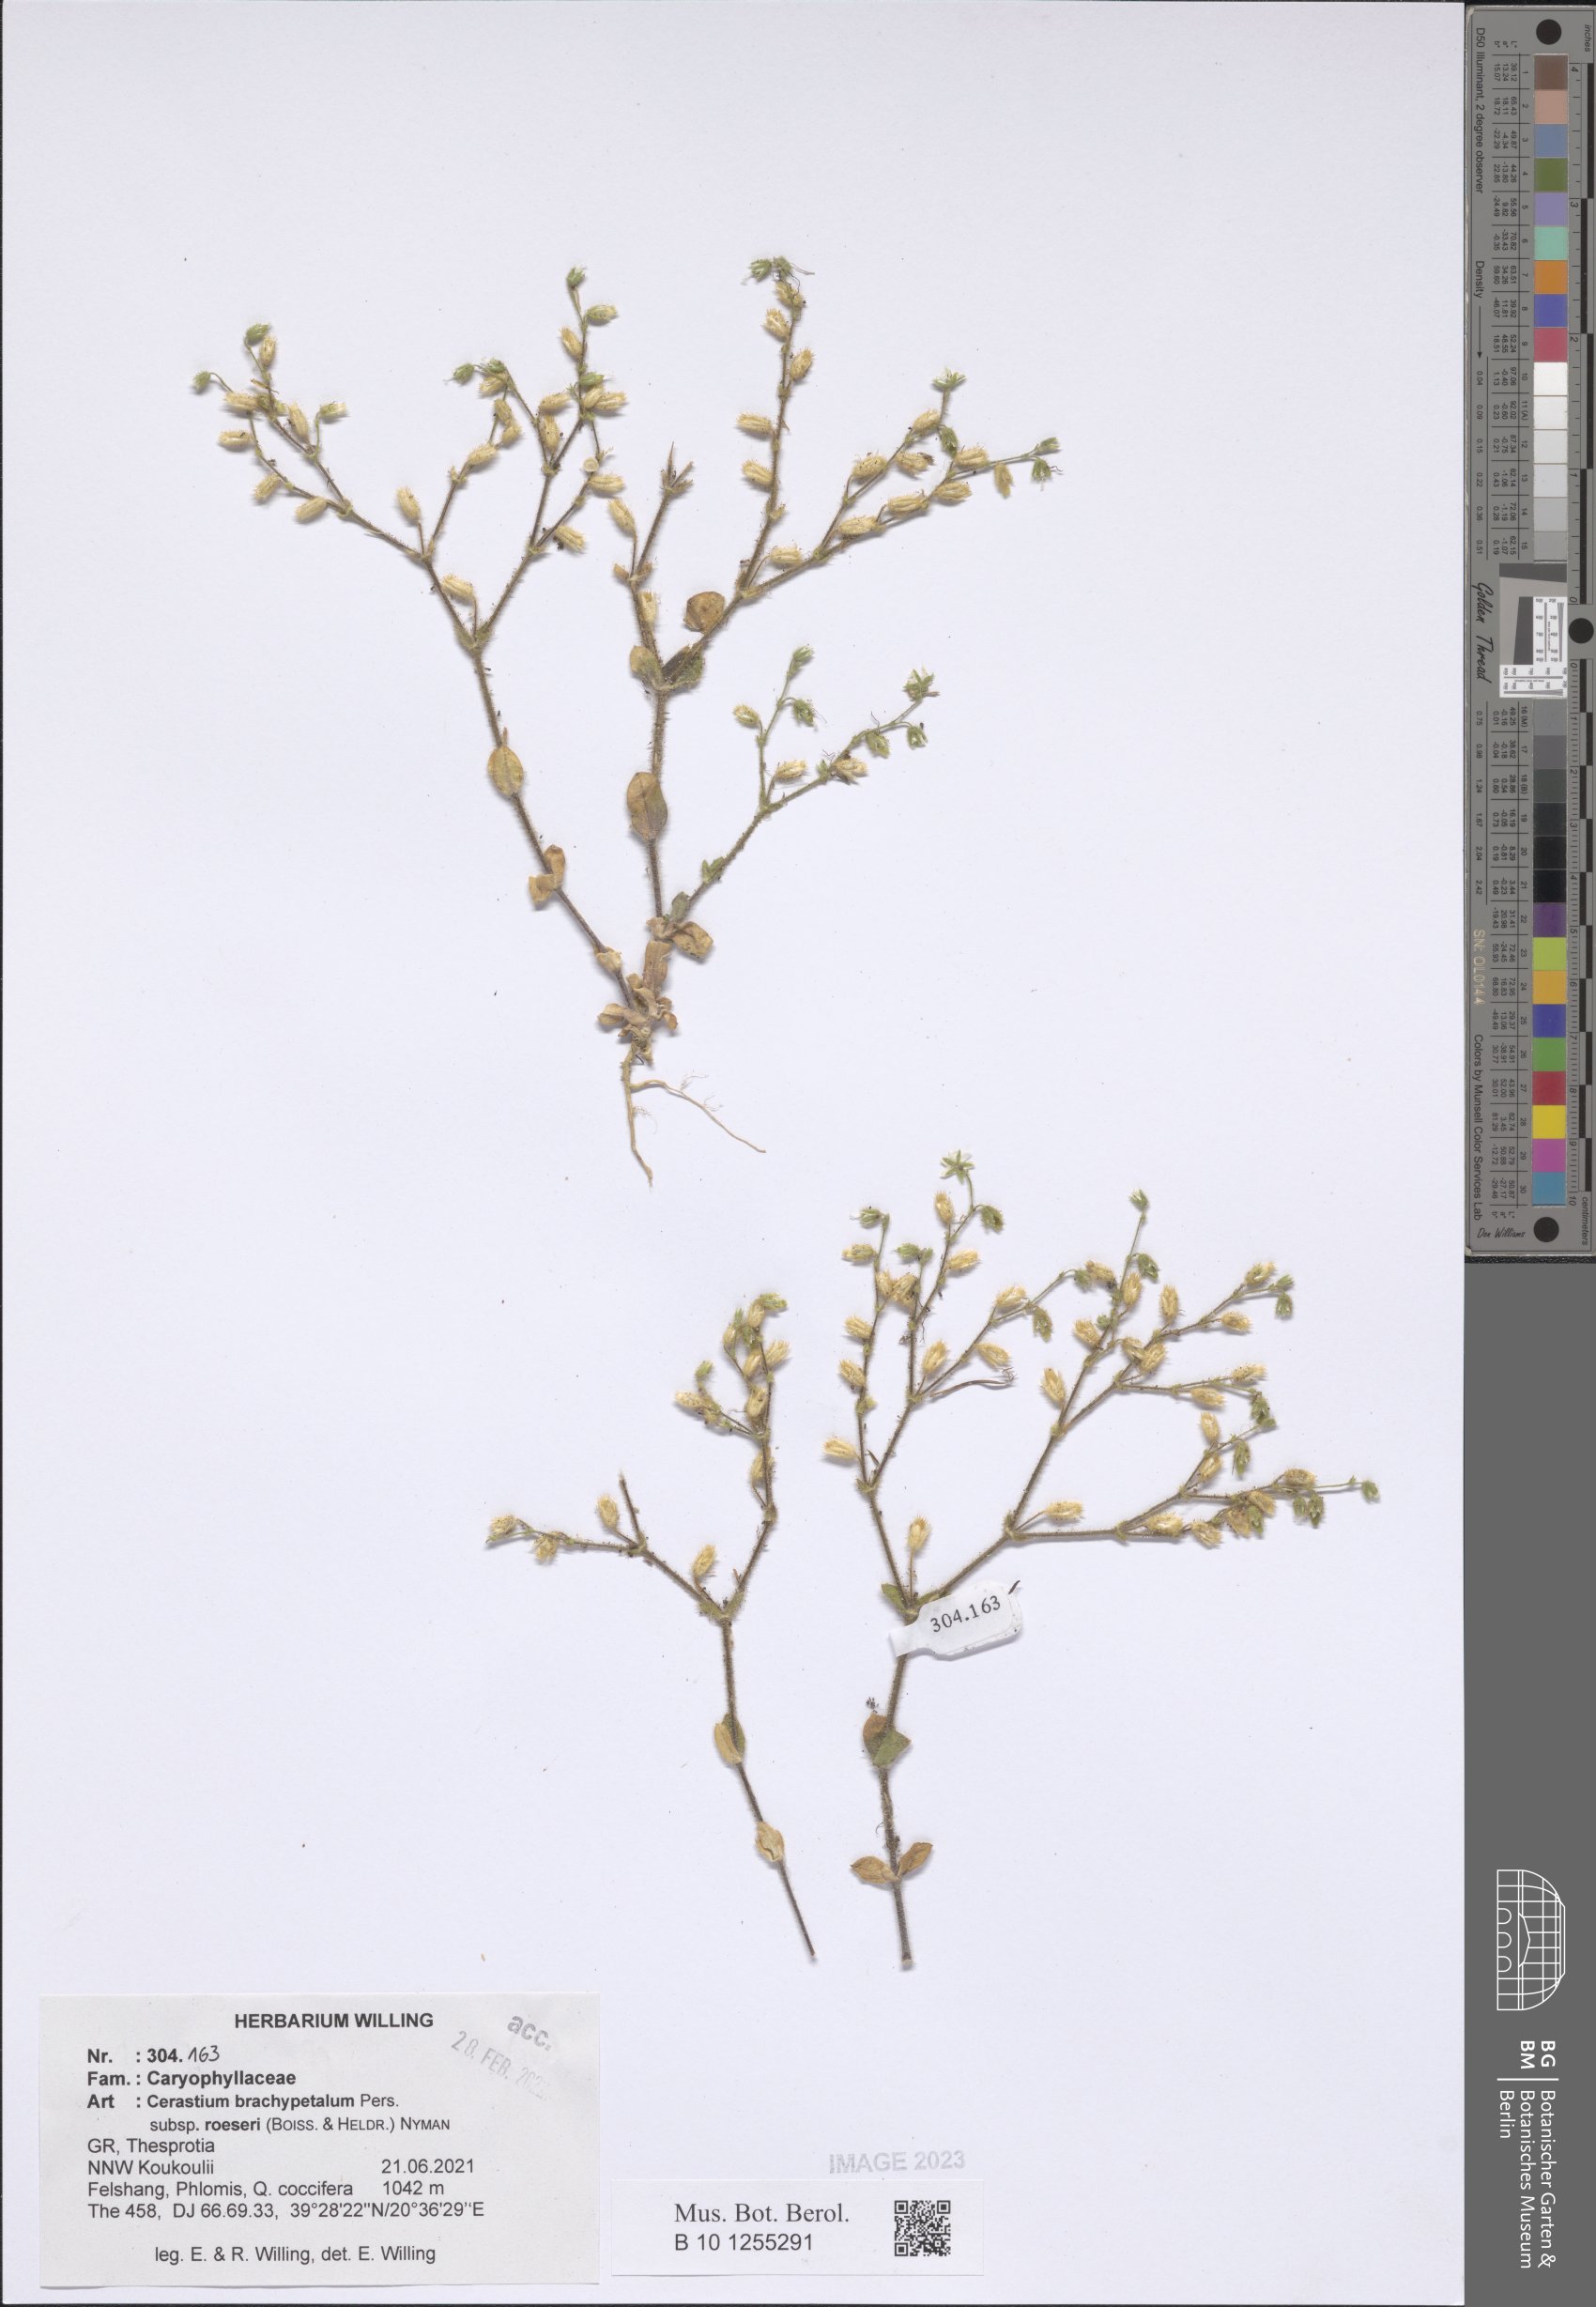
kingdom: Plantae
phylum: Tracheophyta
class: Magnoliopsida
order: Caryophyllales
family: Caryophyllaceae
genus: Cerastium
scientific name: Cerastium brachypetalum
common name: Grey mouse-ear
